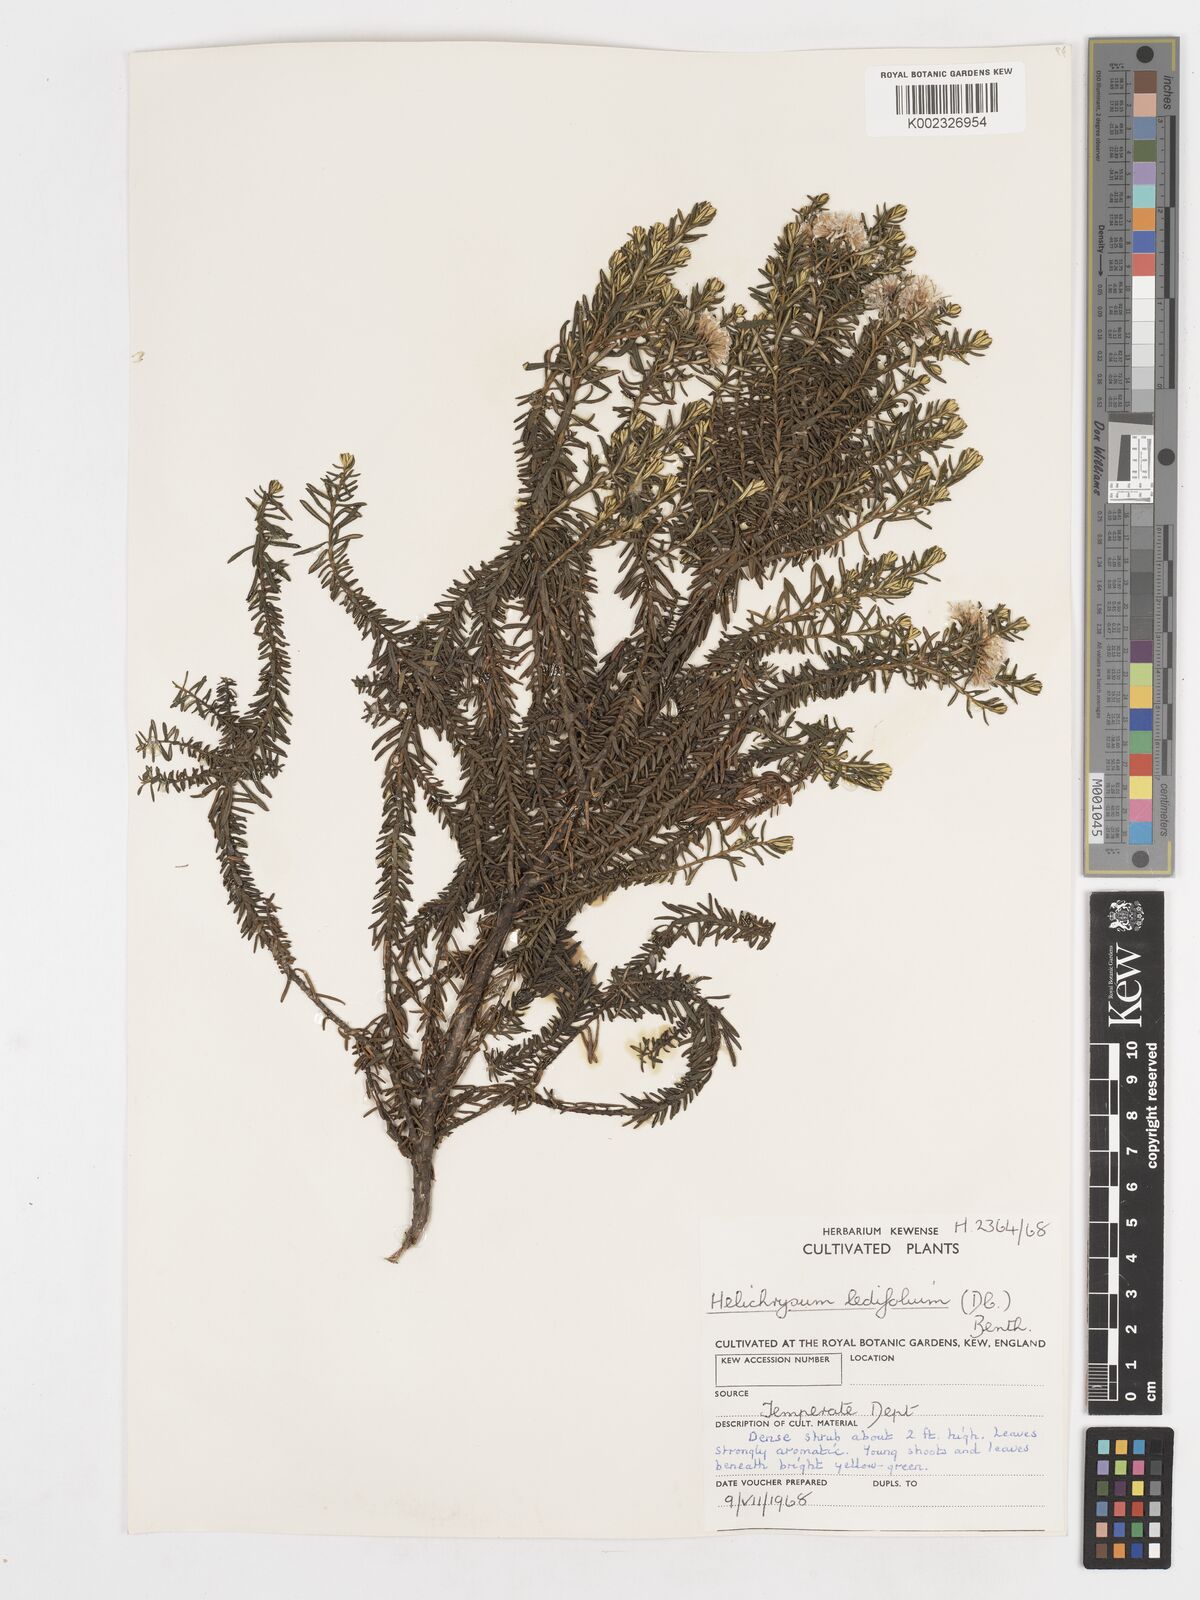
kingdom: Plantae
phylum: Tracheophyta
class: Magnoliopsida
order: Asterales
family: Asteraceae
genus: Ozothamnus
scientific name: Ozothamnus ledifolius
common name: Kerosene-weed
